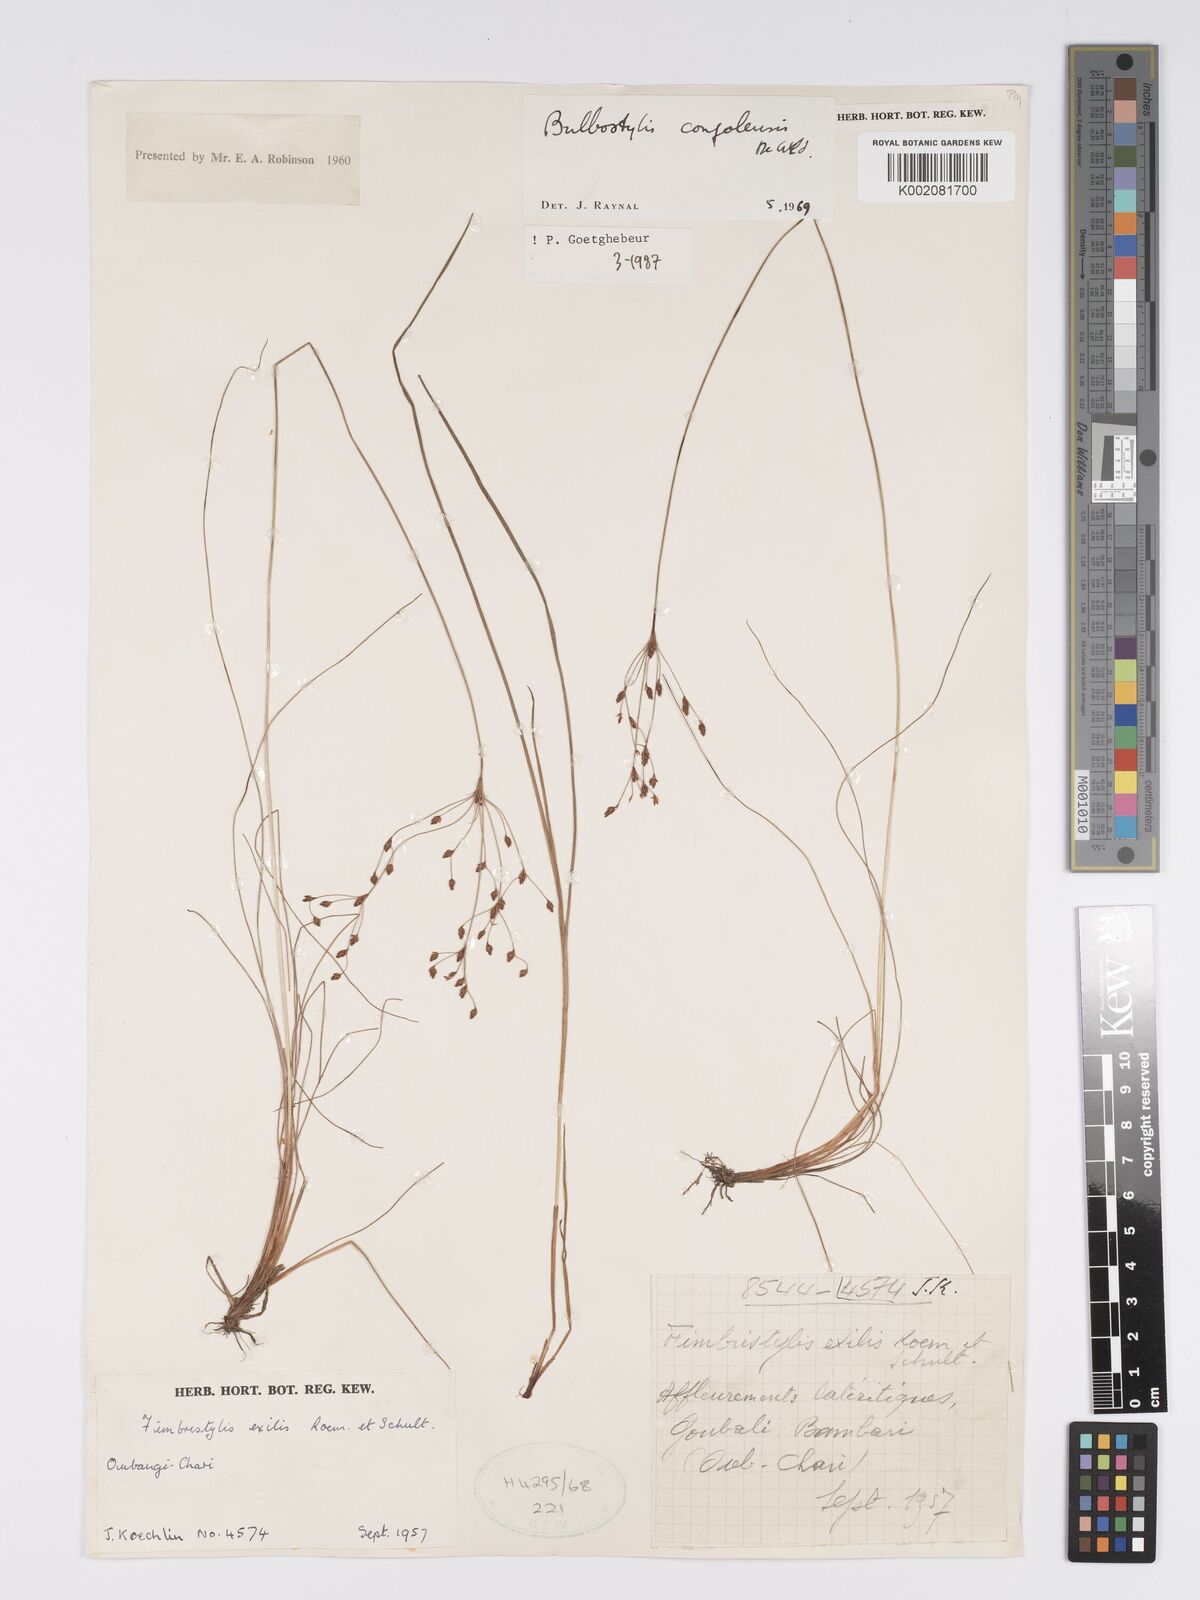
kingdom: Plantae
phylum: Tracheophyta
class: Liliopsida
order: Poales
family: Cyperaceae
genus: Bulbostylis
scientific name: Bulbostylis congolensis
